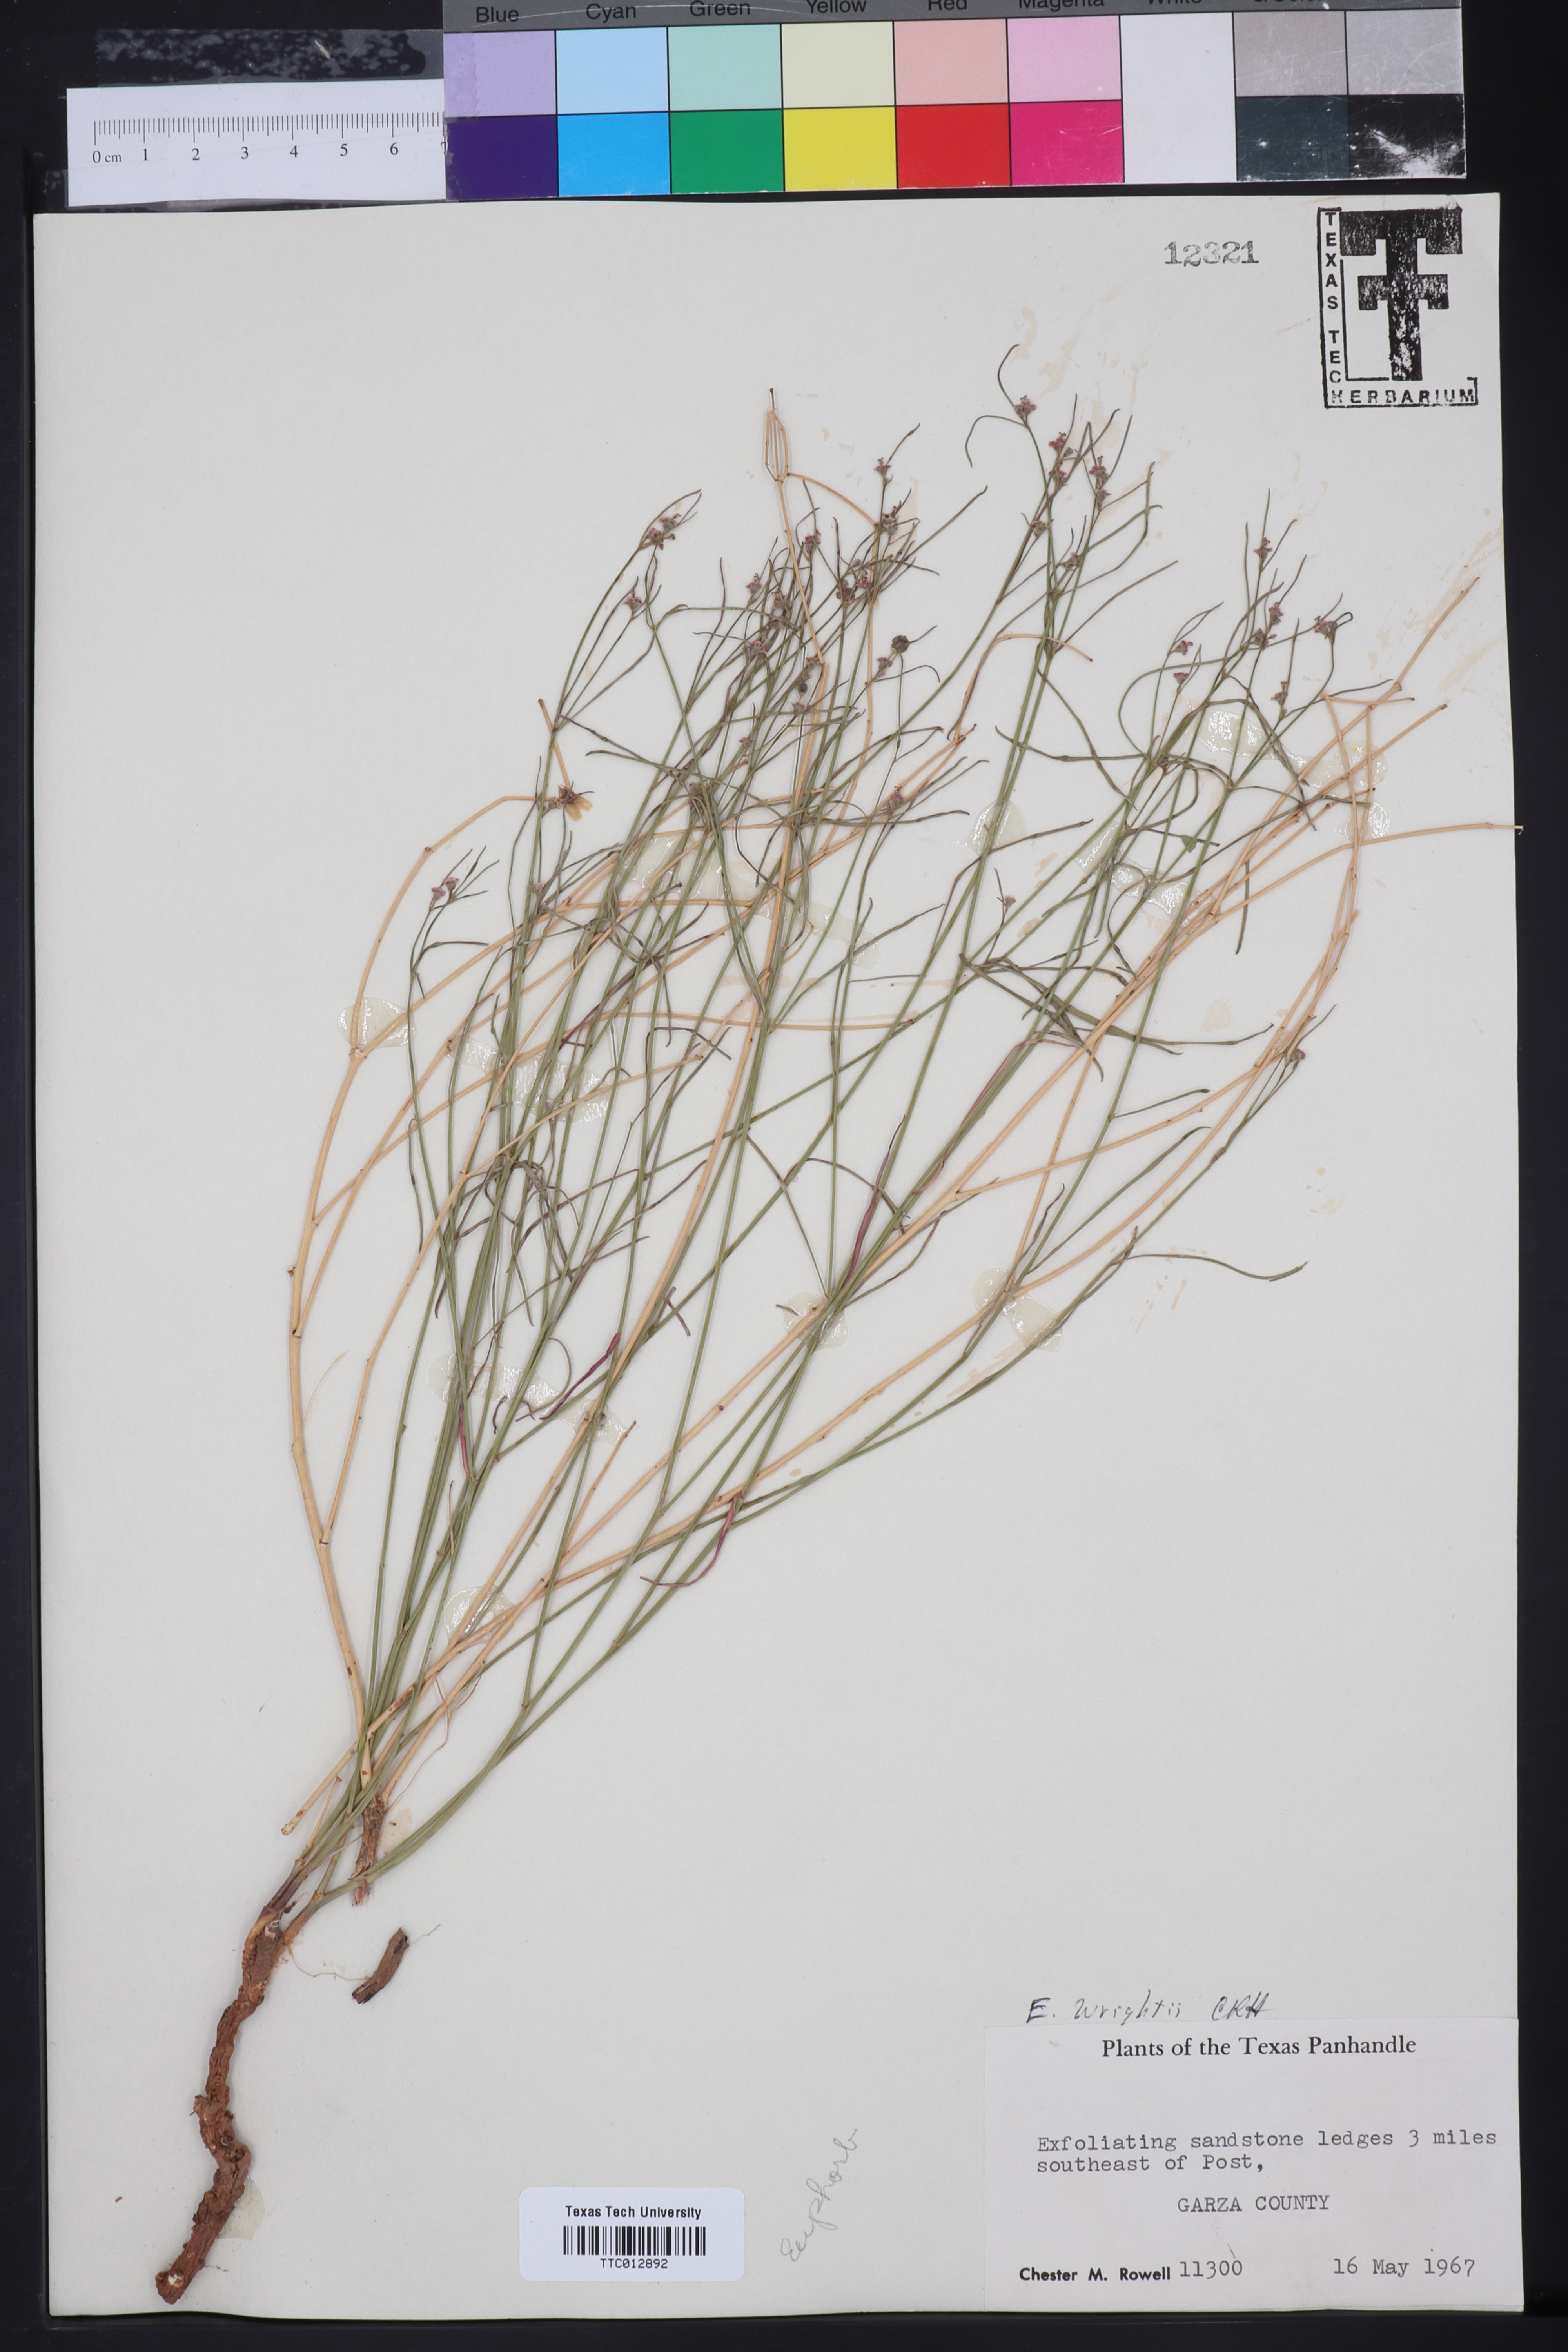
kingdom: Plantae
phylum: Tracheophyta
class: Magnoliopsida
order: Malpighiales
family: Euphorbiaceae
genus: Euphorbia
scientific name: Euphorbia wrightii
